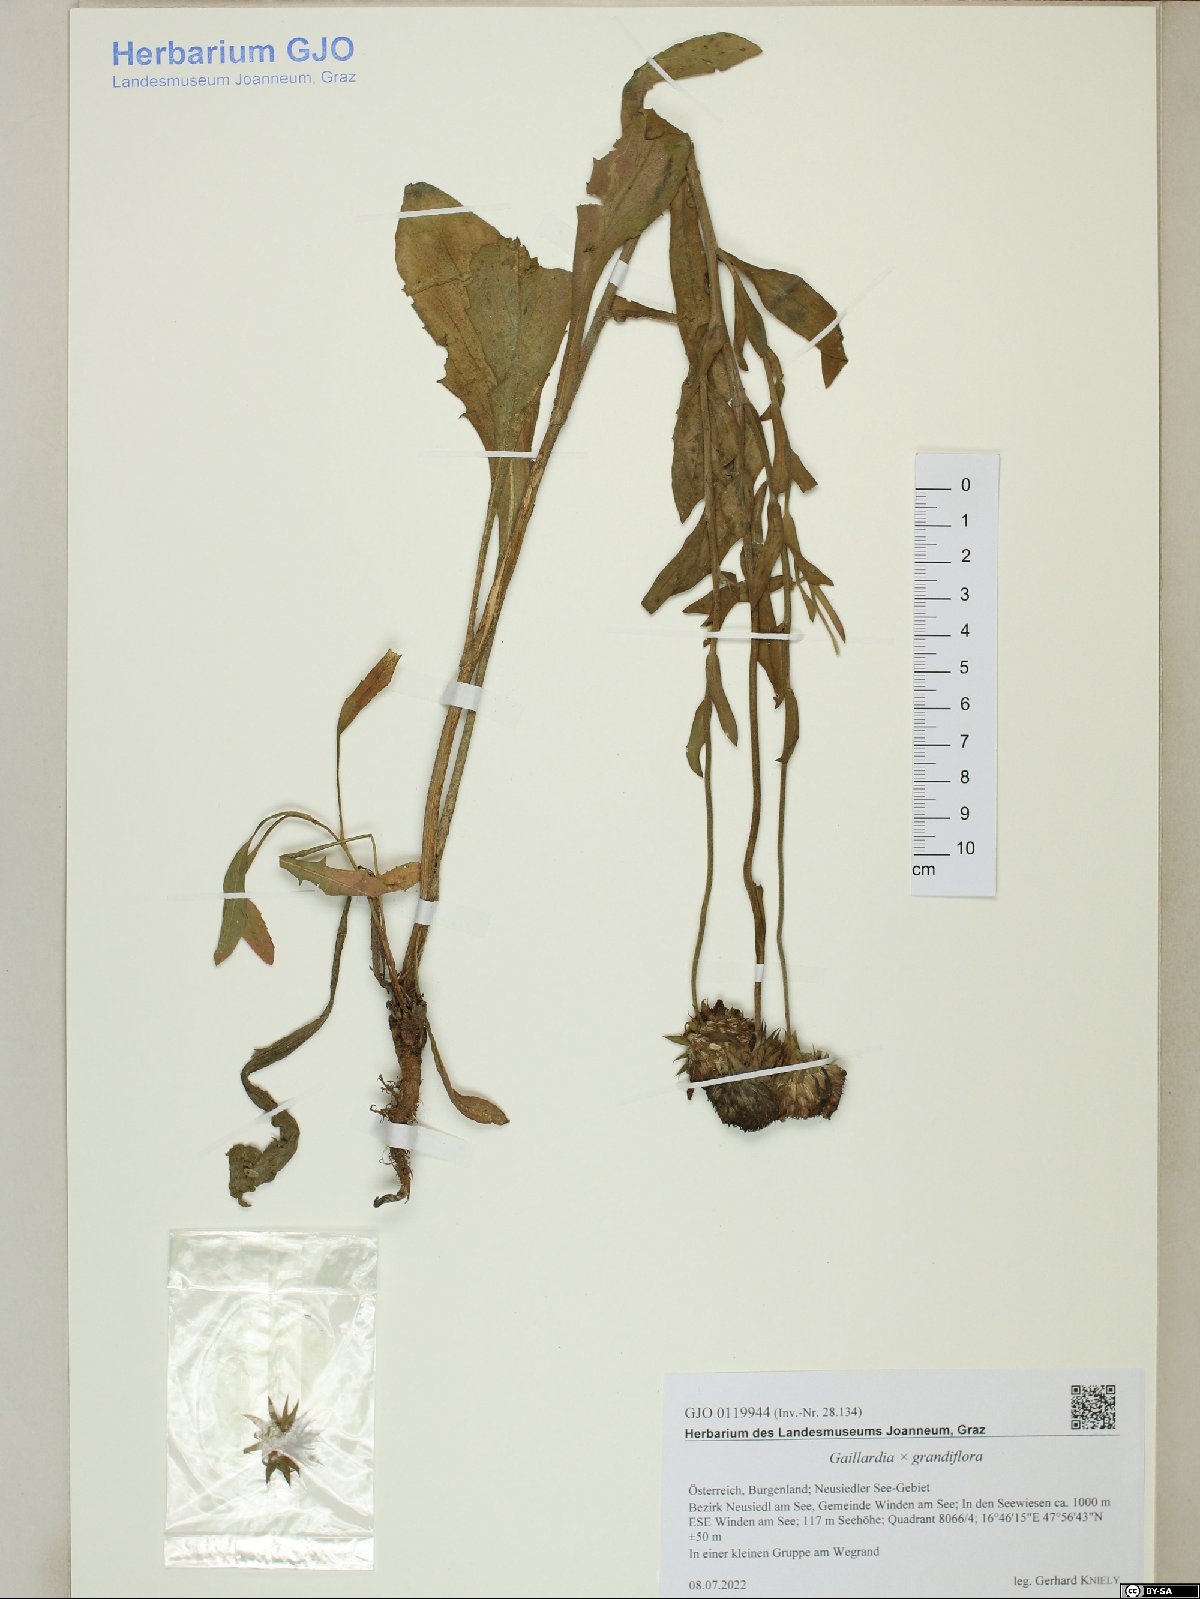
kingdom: Plantae
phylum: Tracheophyta
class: Magnoliopsida
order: Asterales
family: Asteraceae
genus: Gaillardia
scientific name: Gaillardia grandiflora
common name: Blanket flower
